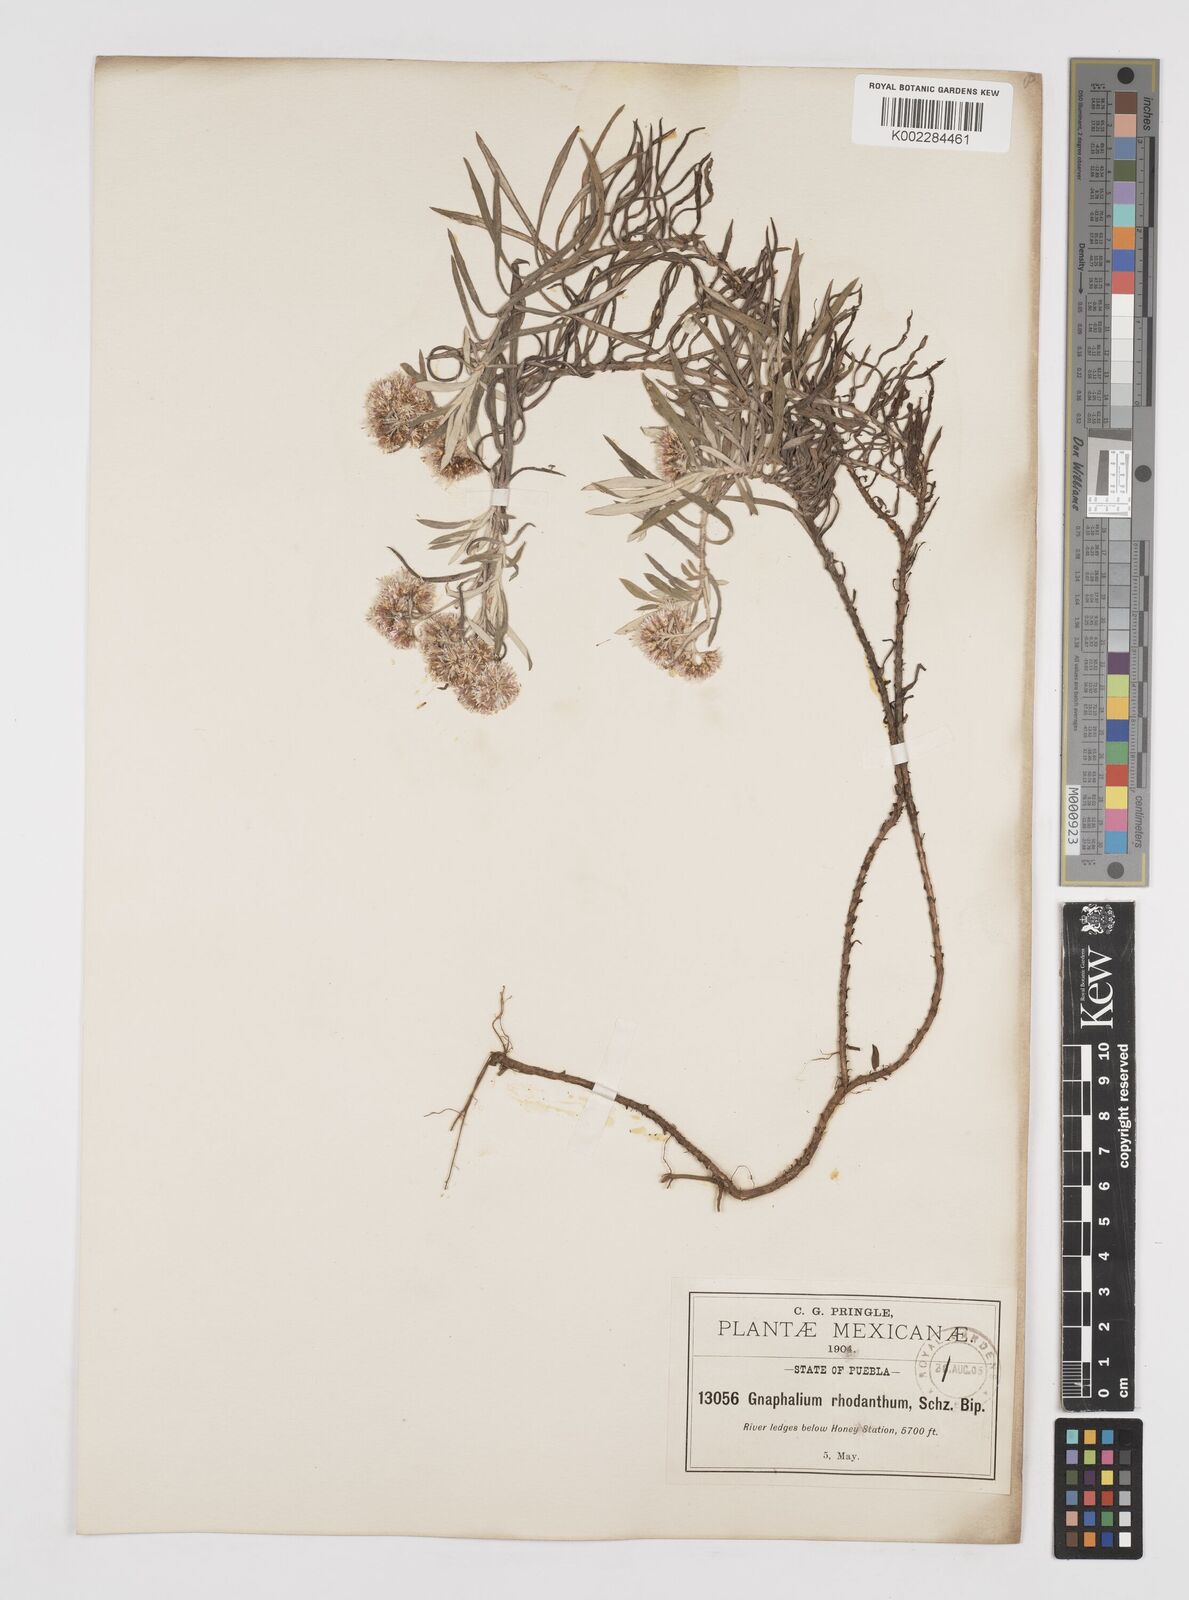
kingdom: Plantae
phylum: Tracheophyta
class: Magnoliopsida
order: Asterales
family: Asteraceae
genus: Gnaphaliothamnus
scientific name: Gnaphaliothamnus salicifolius
